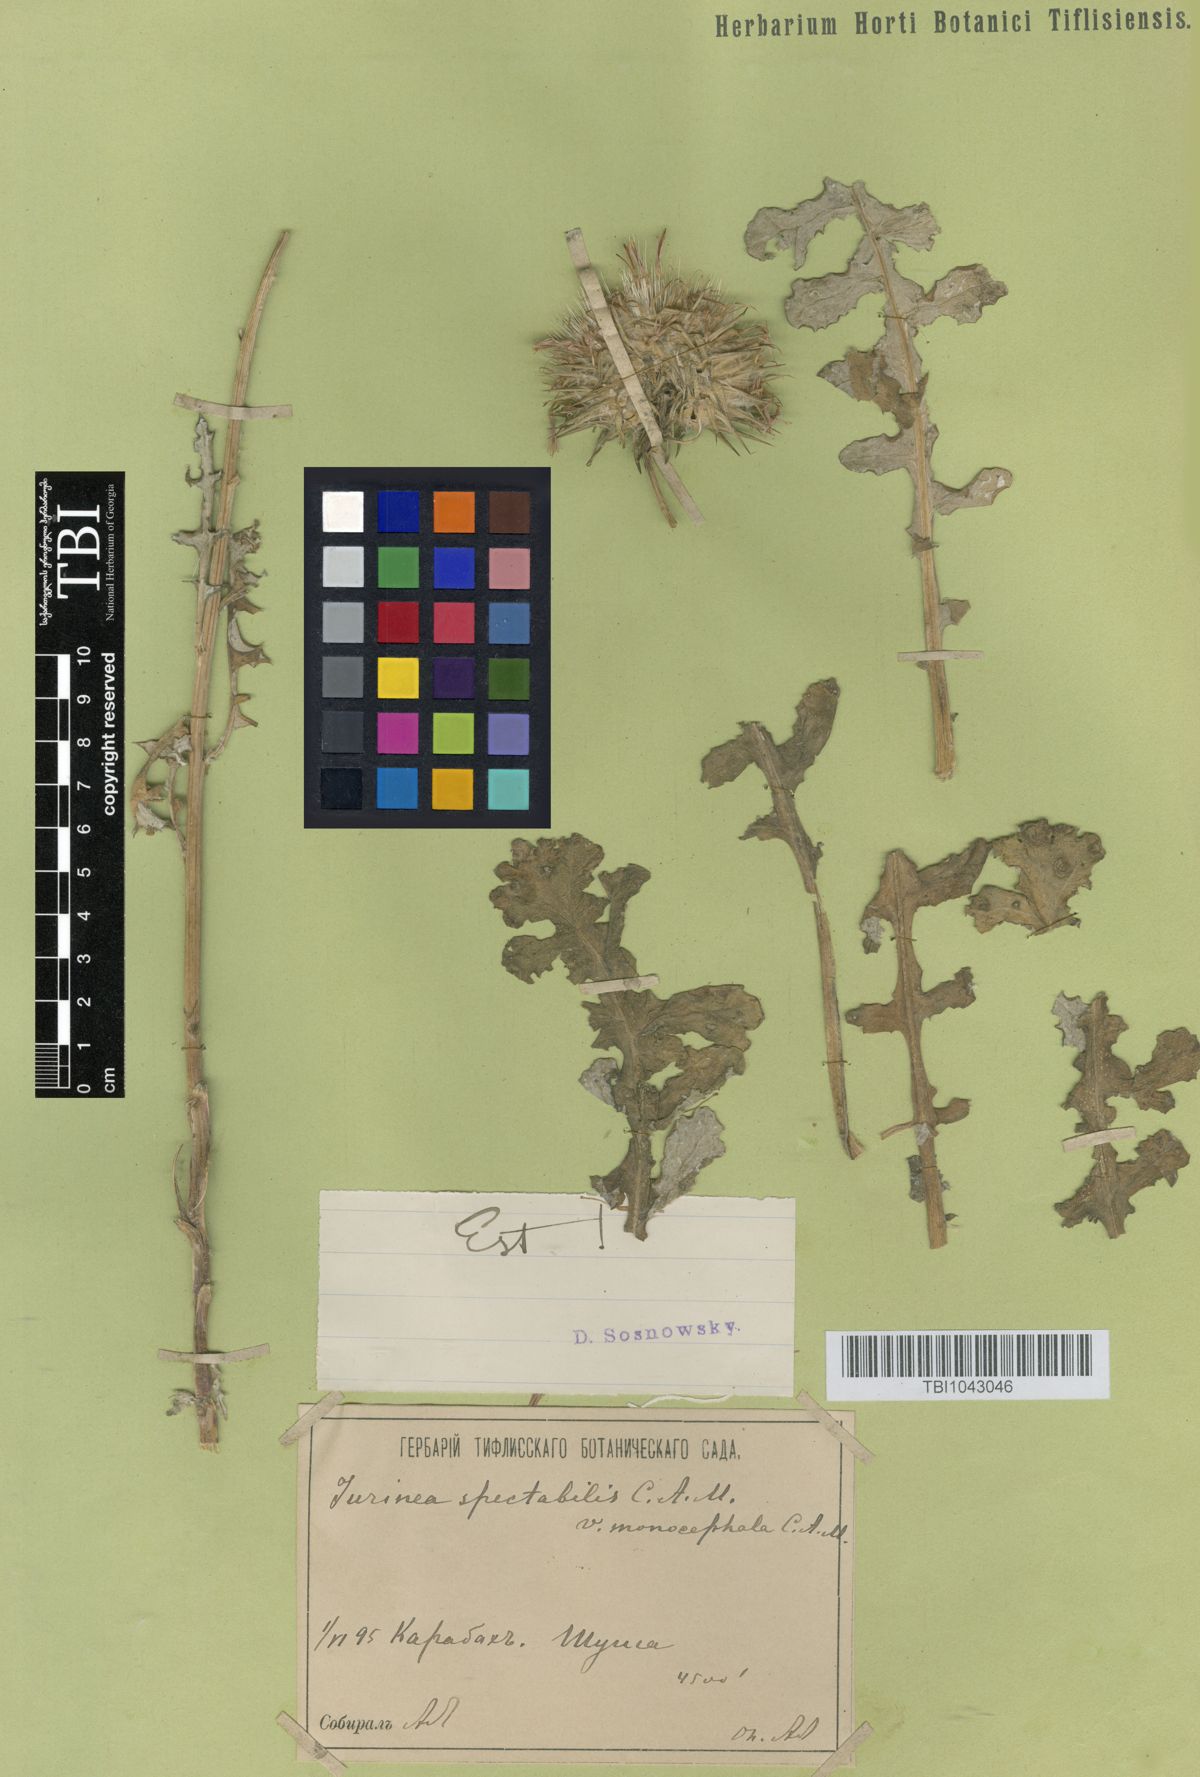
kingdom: Plantae
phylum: Tracheophyta
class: Magnoliopsida
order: Asterales
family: Asteraceae
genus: Jurinea
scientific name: Jurinea spectabilis
